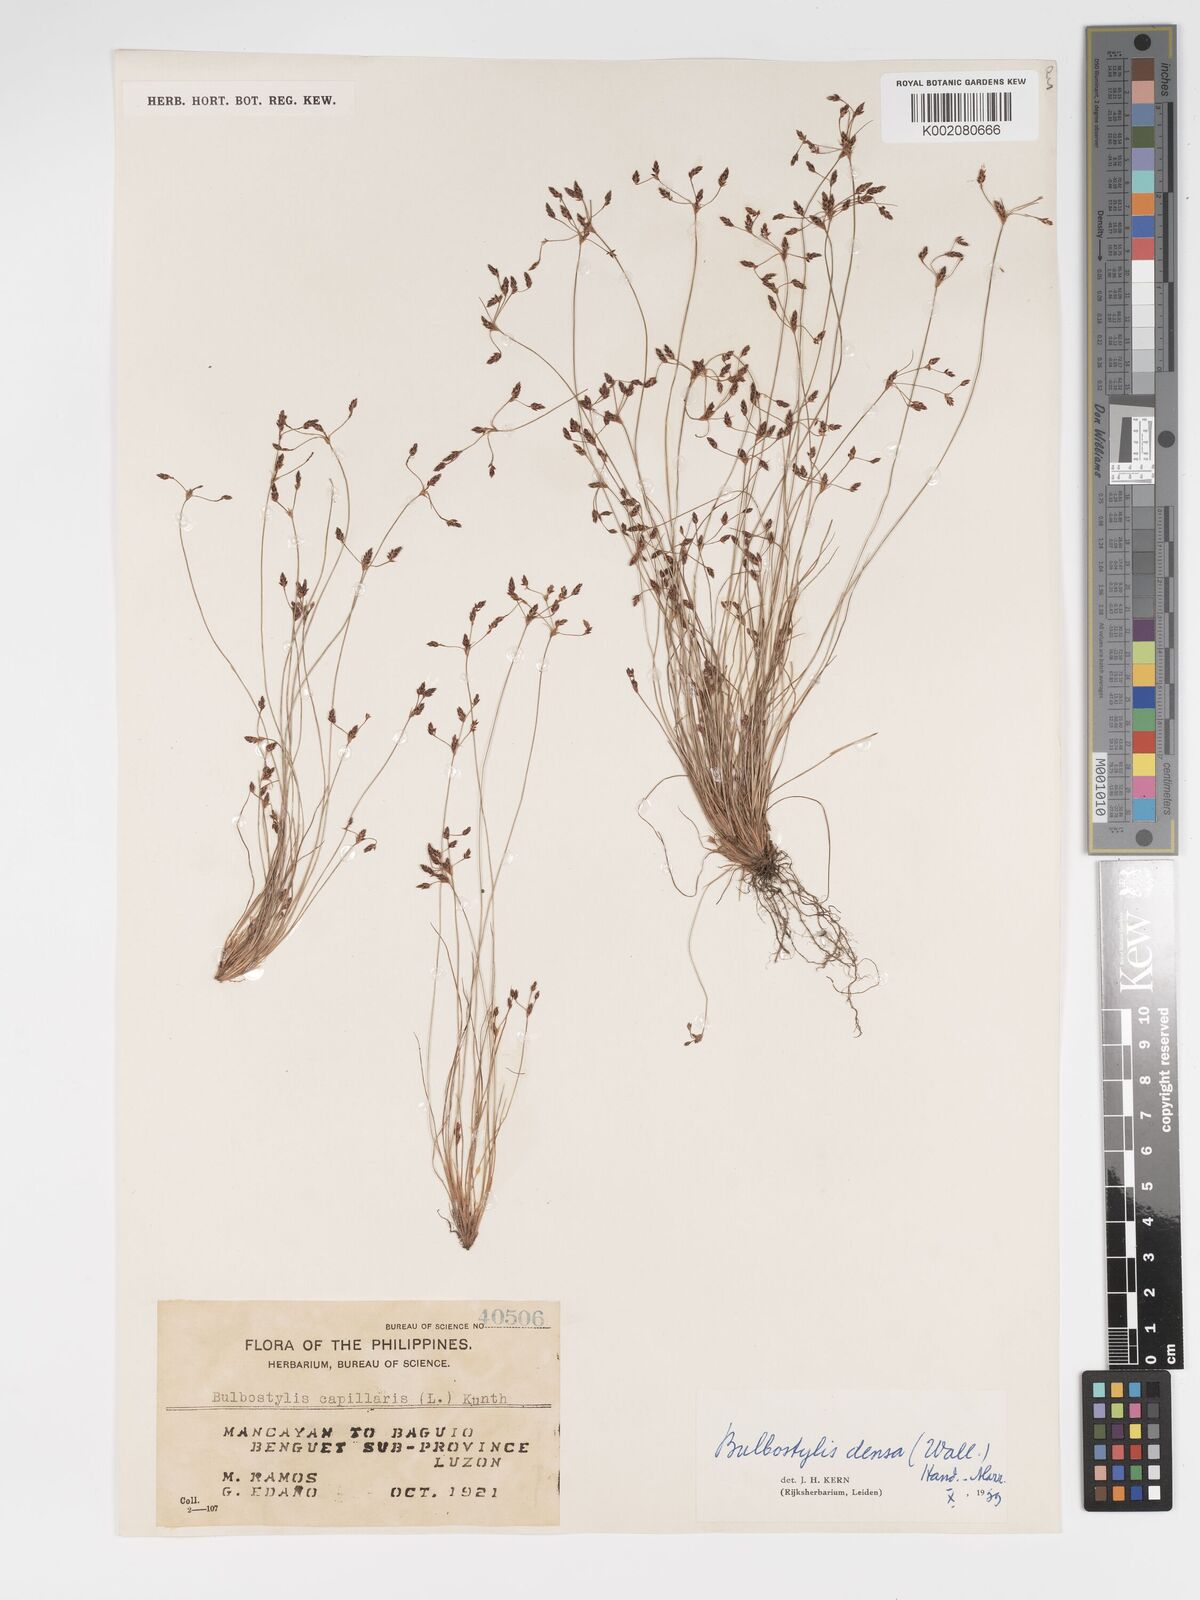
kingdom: Plantae
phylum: Tracheophyta
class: Liliopsida
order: Poales
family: Cyperaceae
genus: Bulbostylis
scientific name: Bulbostylis densa
